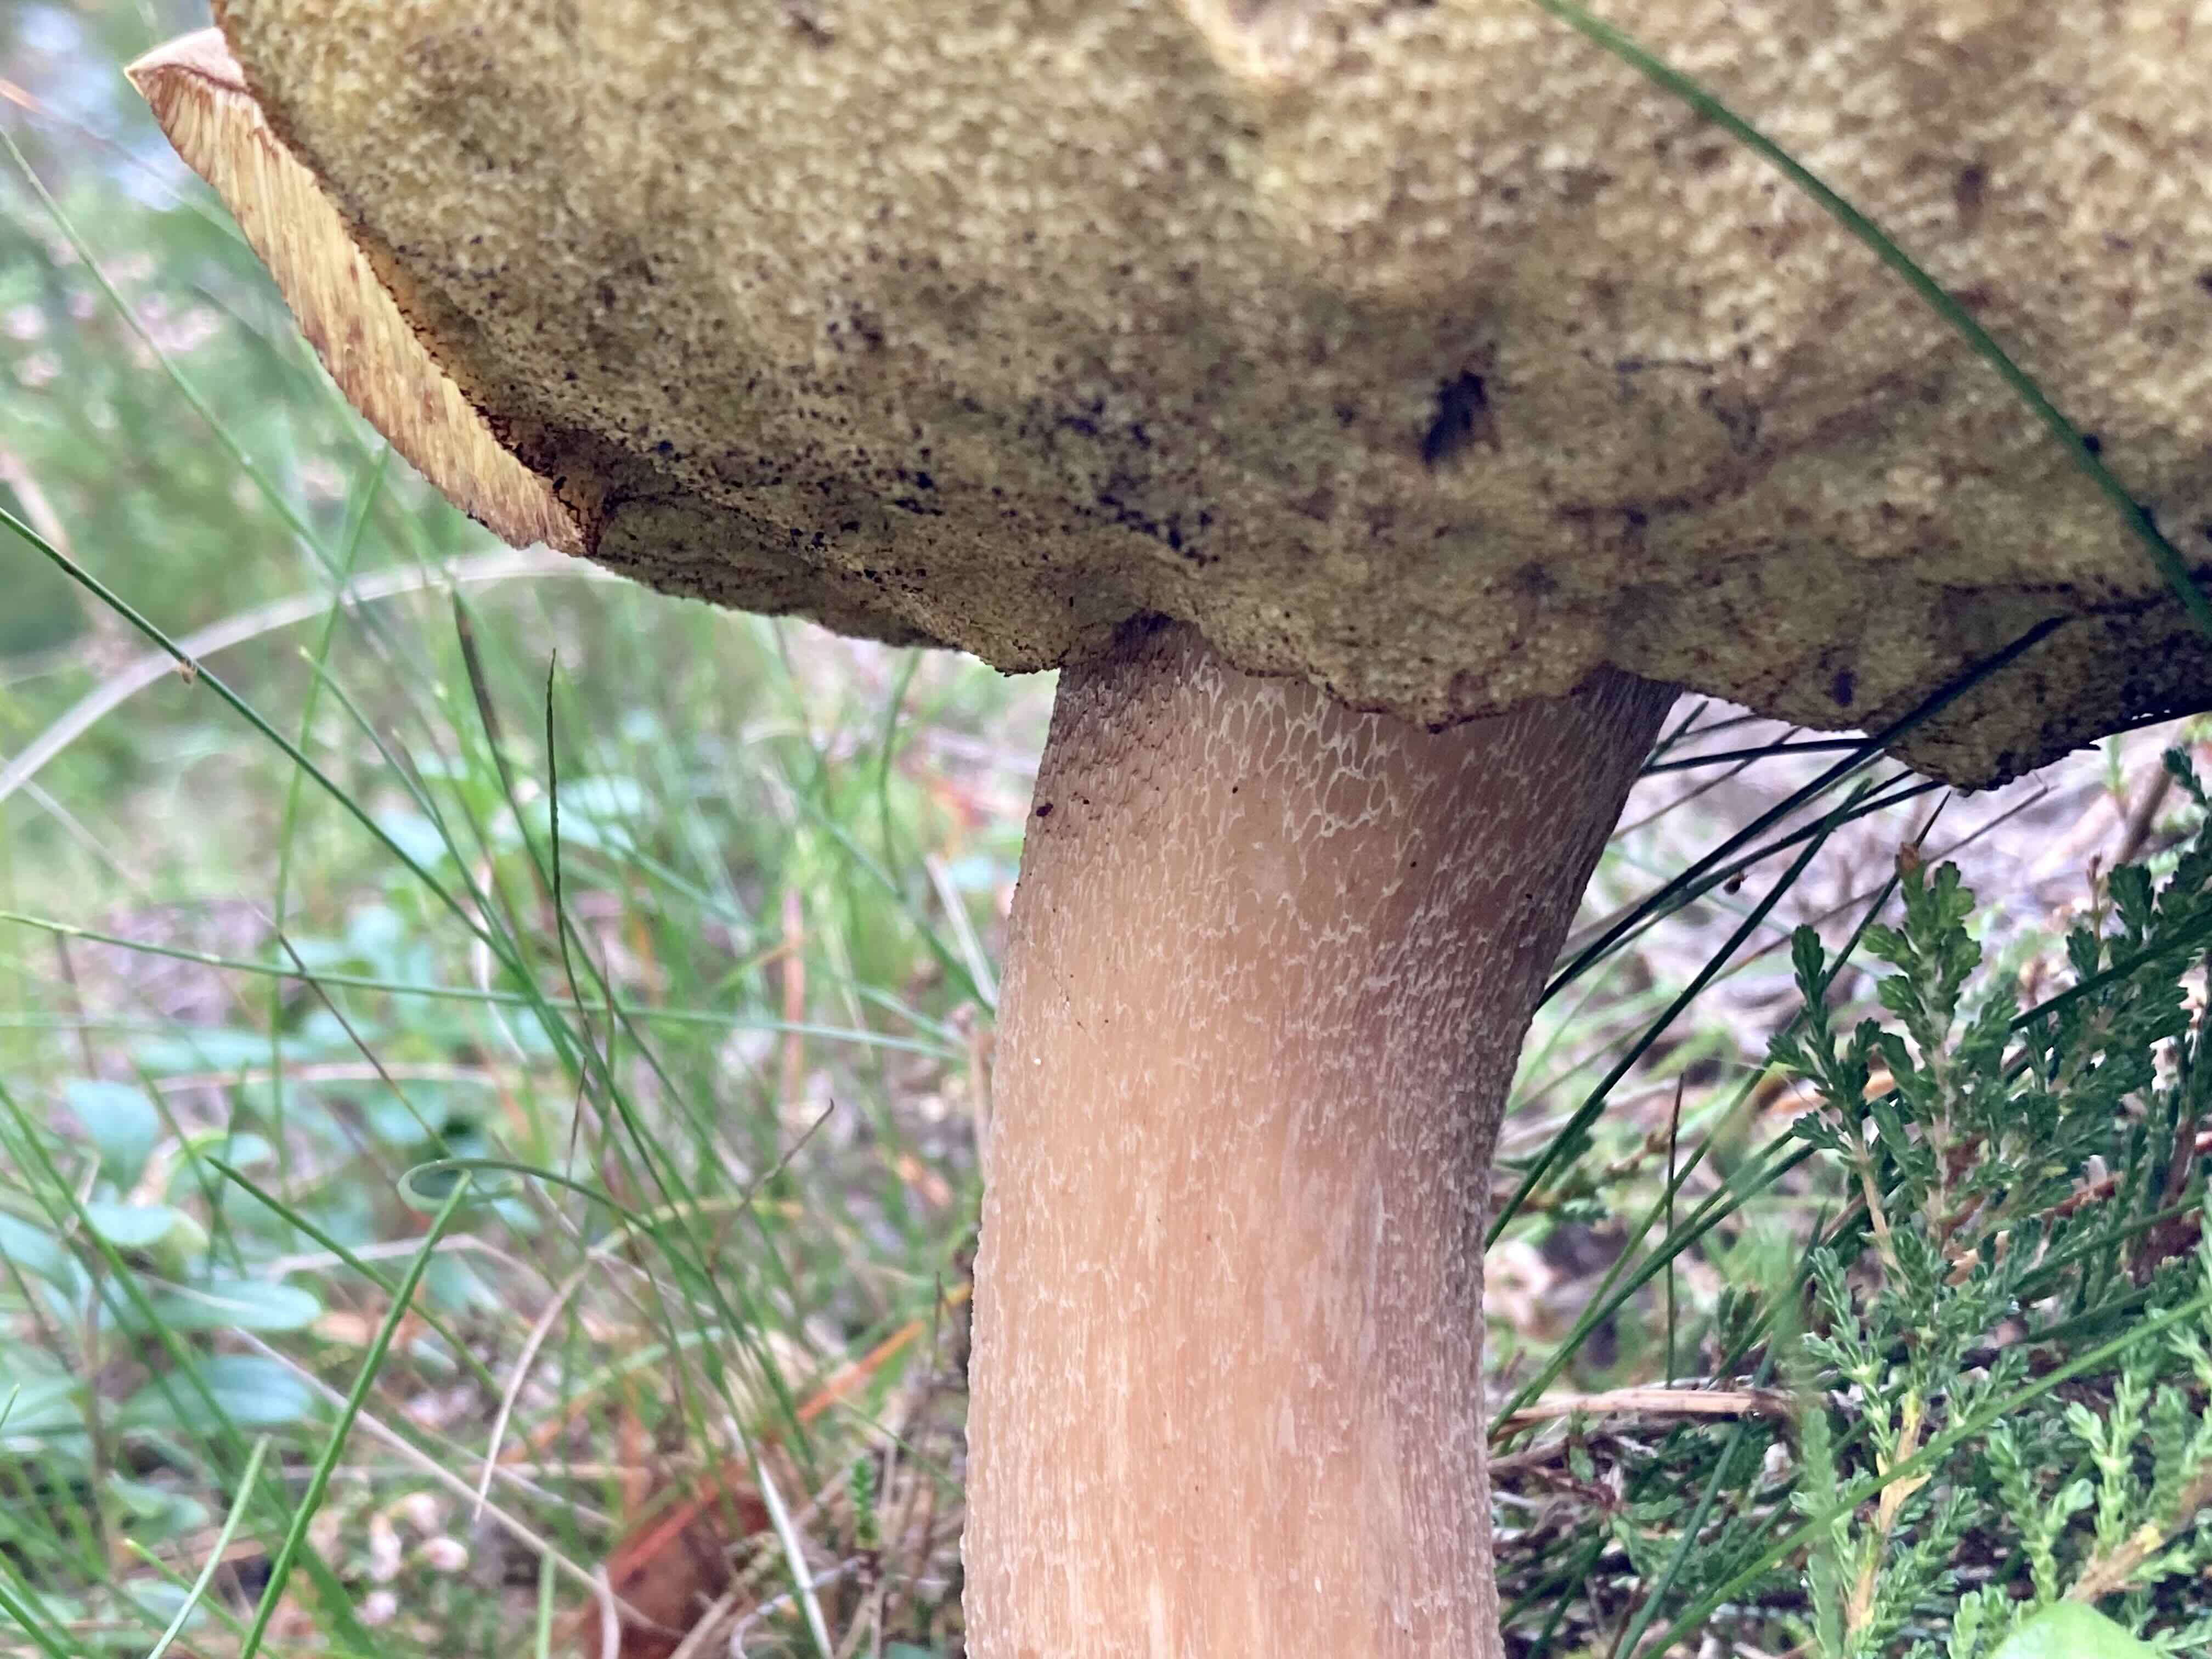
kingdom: Fungi
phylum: Basidiomycota
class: Agaricomycetes
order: Boletales
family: Boletaceae
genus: Boletus
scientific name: Boletus edulis
